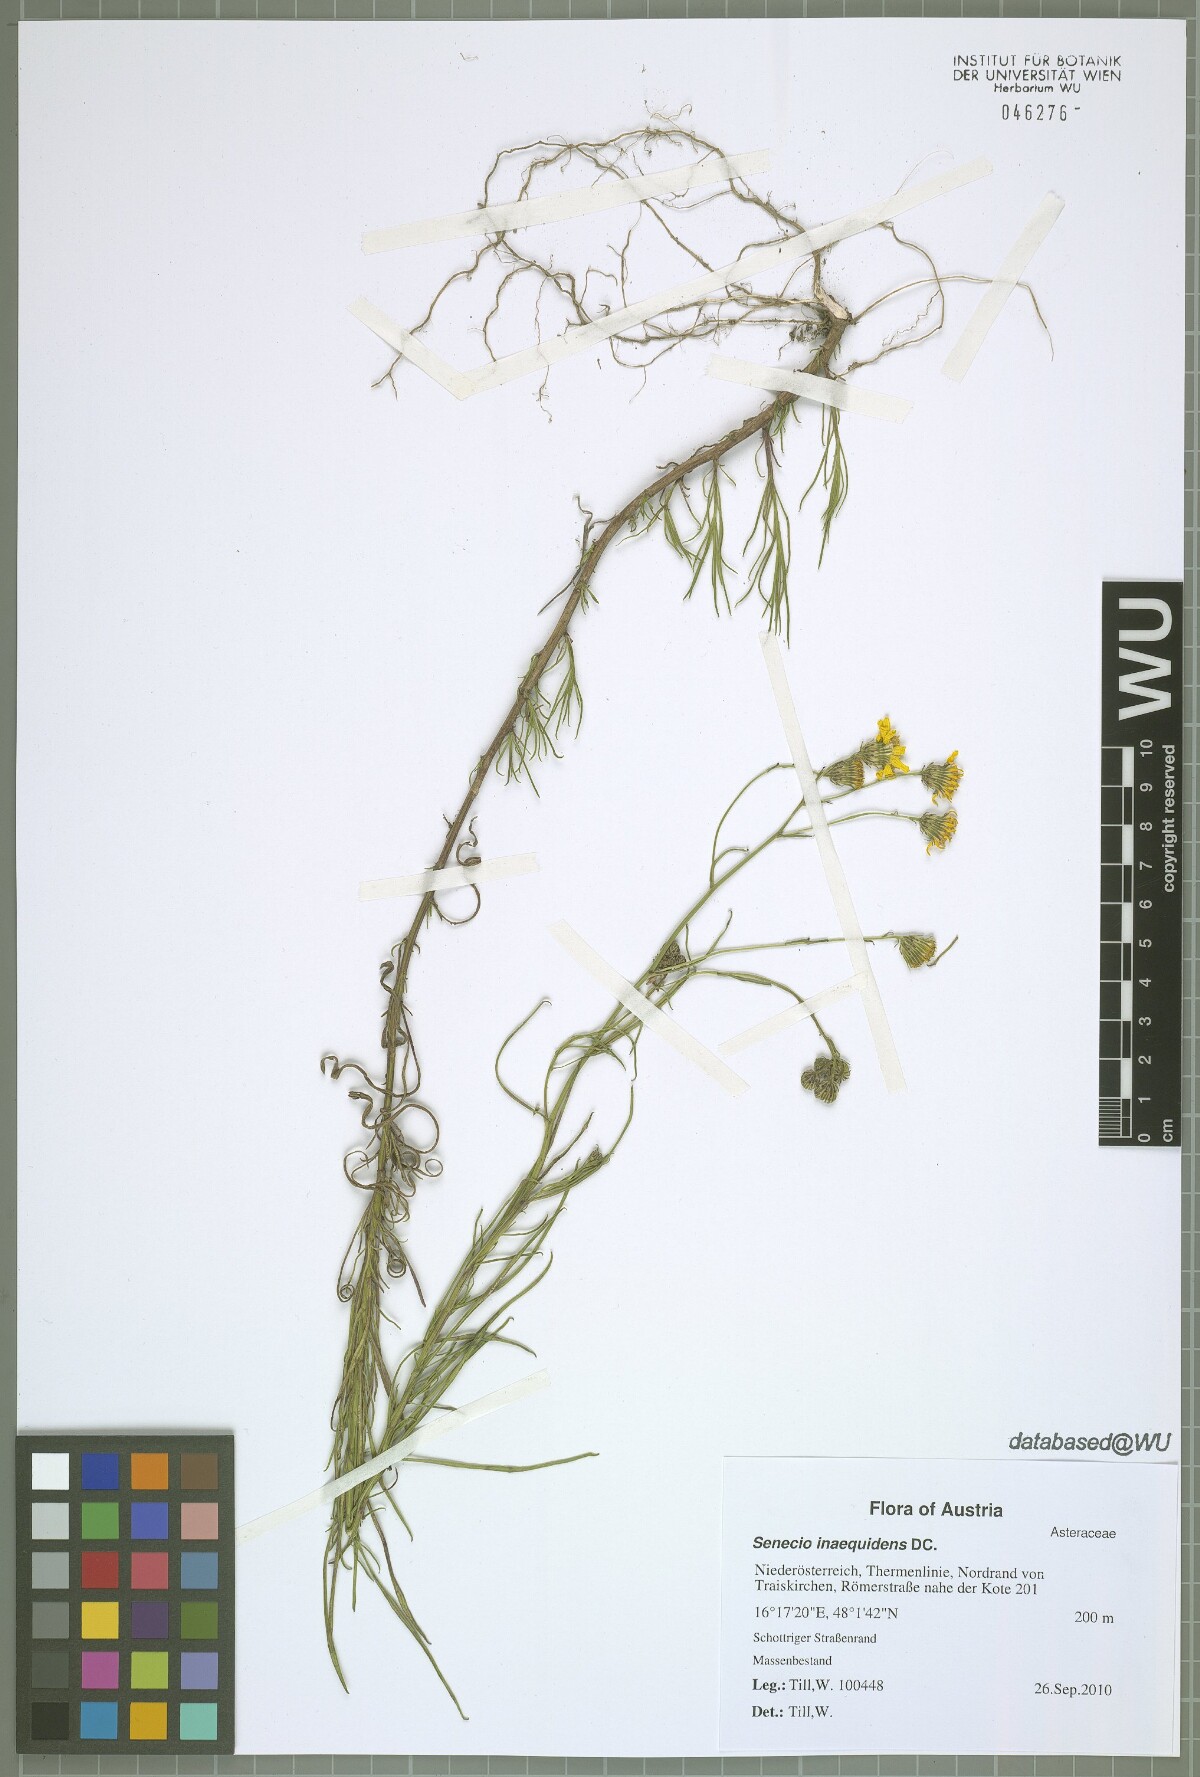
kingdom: Plantae
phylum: Tracheophyta
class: Magnoliopsida
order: Asterales
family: Asteraceae
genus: Senecio
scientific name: Senecio inaequidens
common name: Narrow-leaved ragwort
